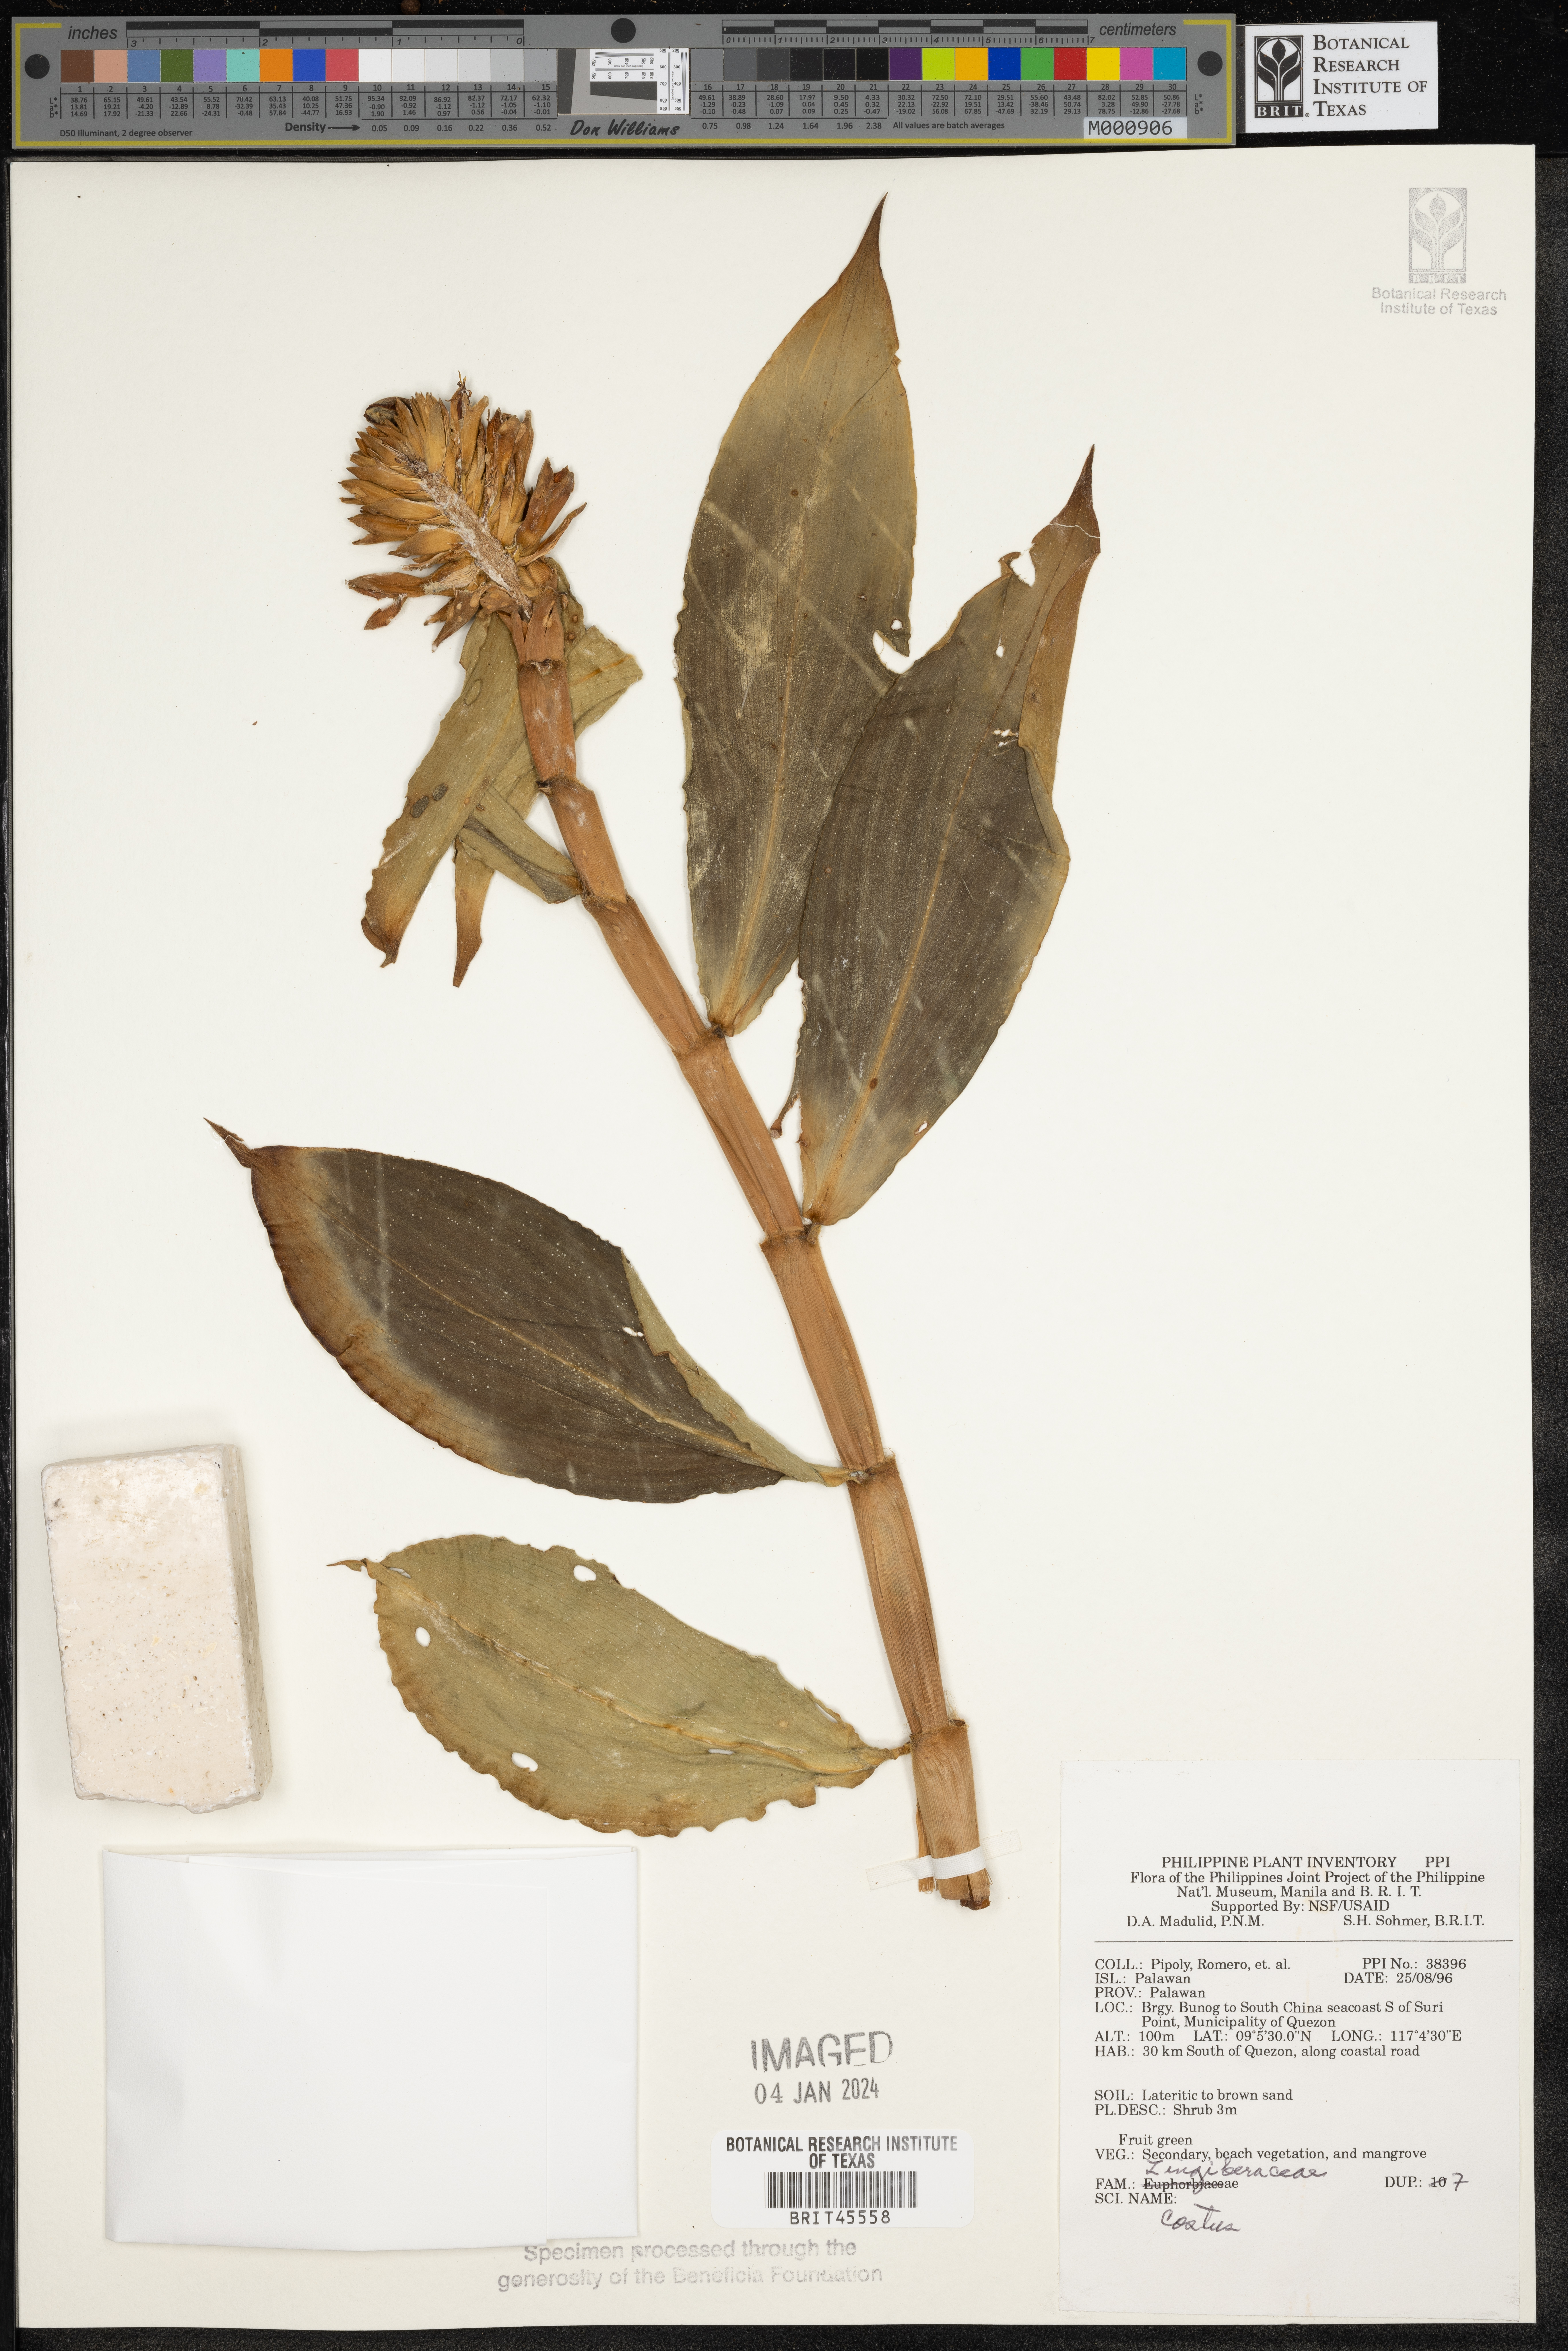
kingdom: Plantae
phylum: Tracheophyta
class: Liliopsida
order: Zingiberales
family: Costaceae
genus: Costus
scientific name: Costus
